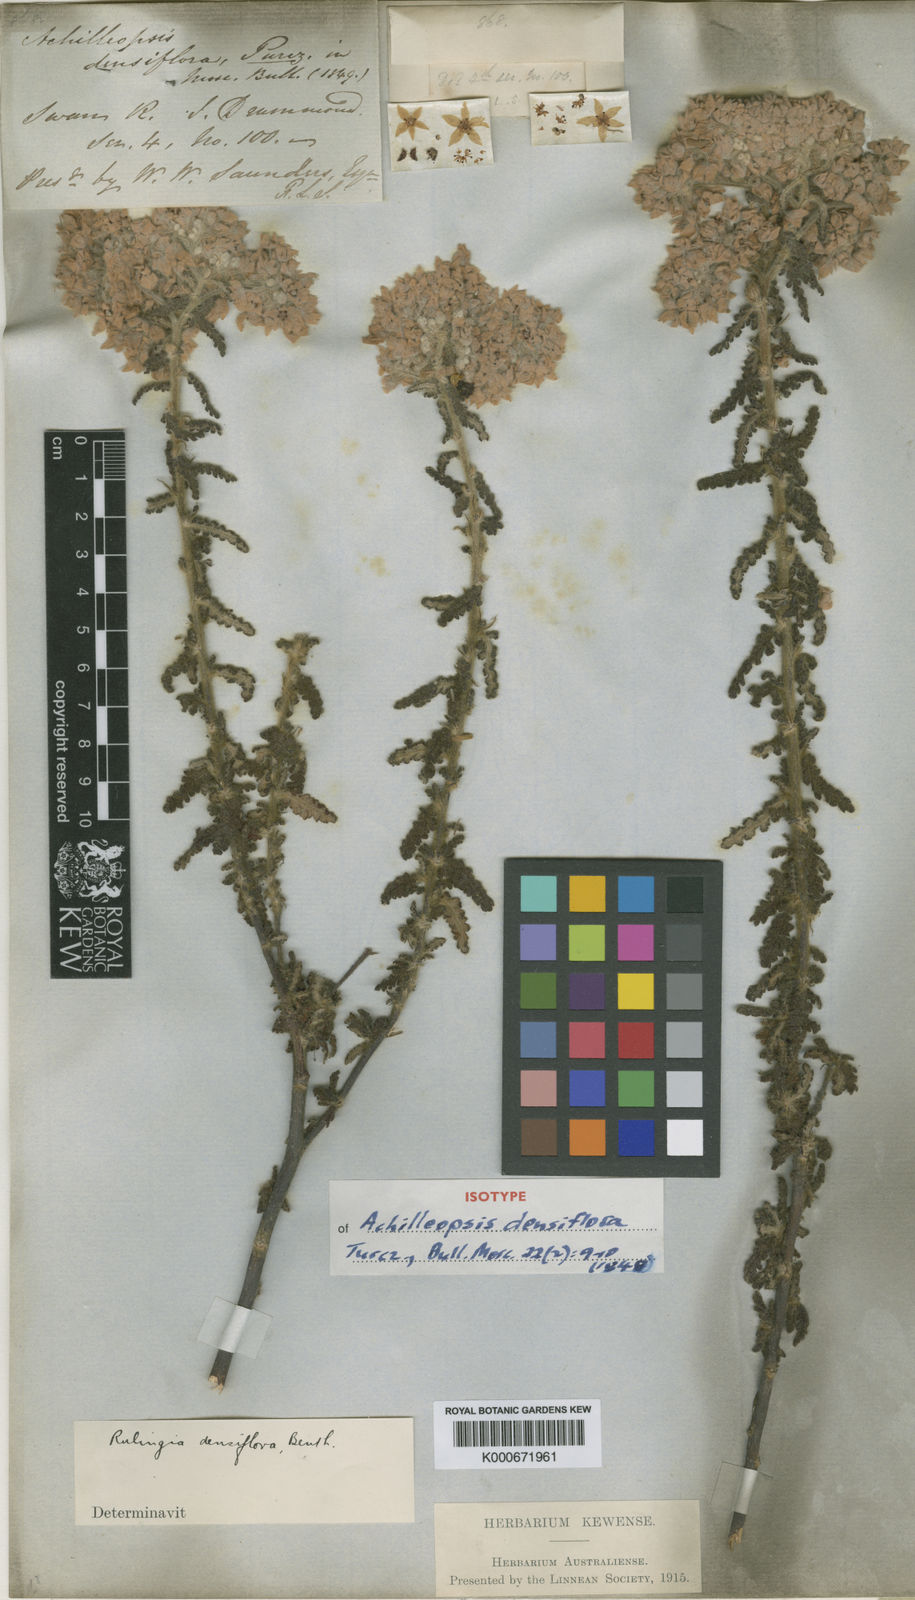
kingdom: Plantae
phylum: Tracheophyta
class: Magnoliopsida
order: Malvales
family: Malvaceae
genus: Commersonia
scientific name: Commersonia densiflora
